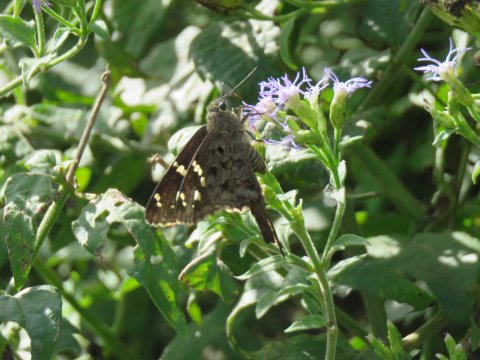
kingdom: Animalia
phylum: Arthropoda
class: Insecta
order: Lepidoptera
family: Hesperiidae
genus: Urbanus
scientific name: Urbanus dorantes
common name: Dorantes Longtail
